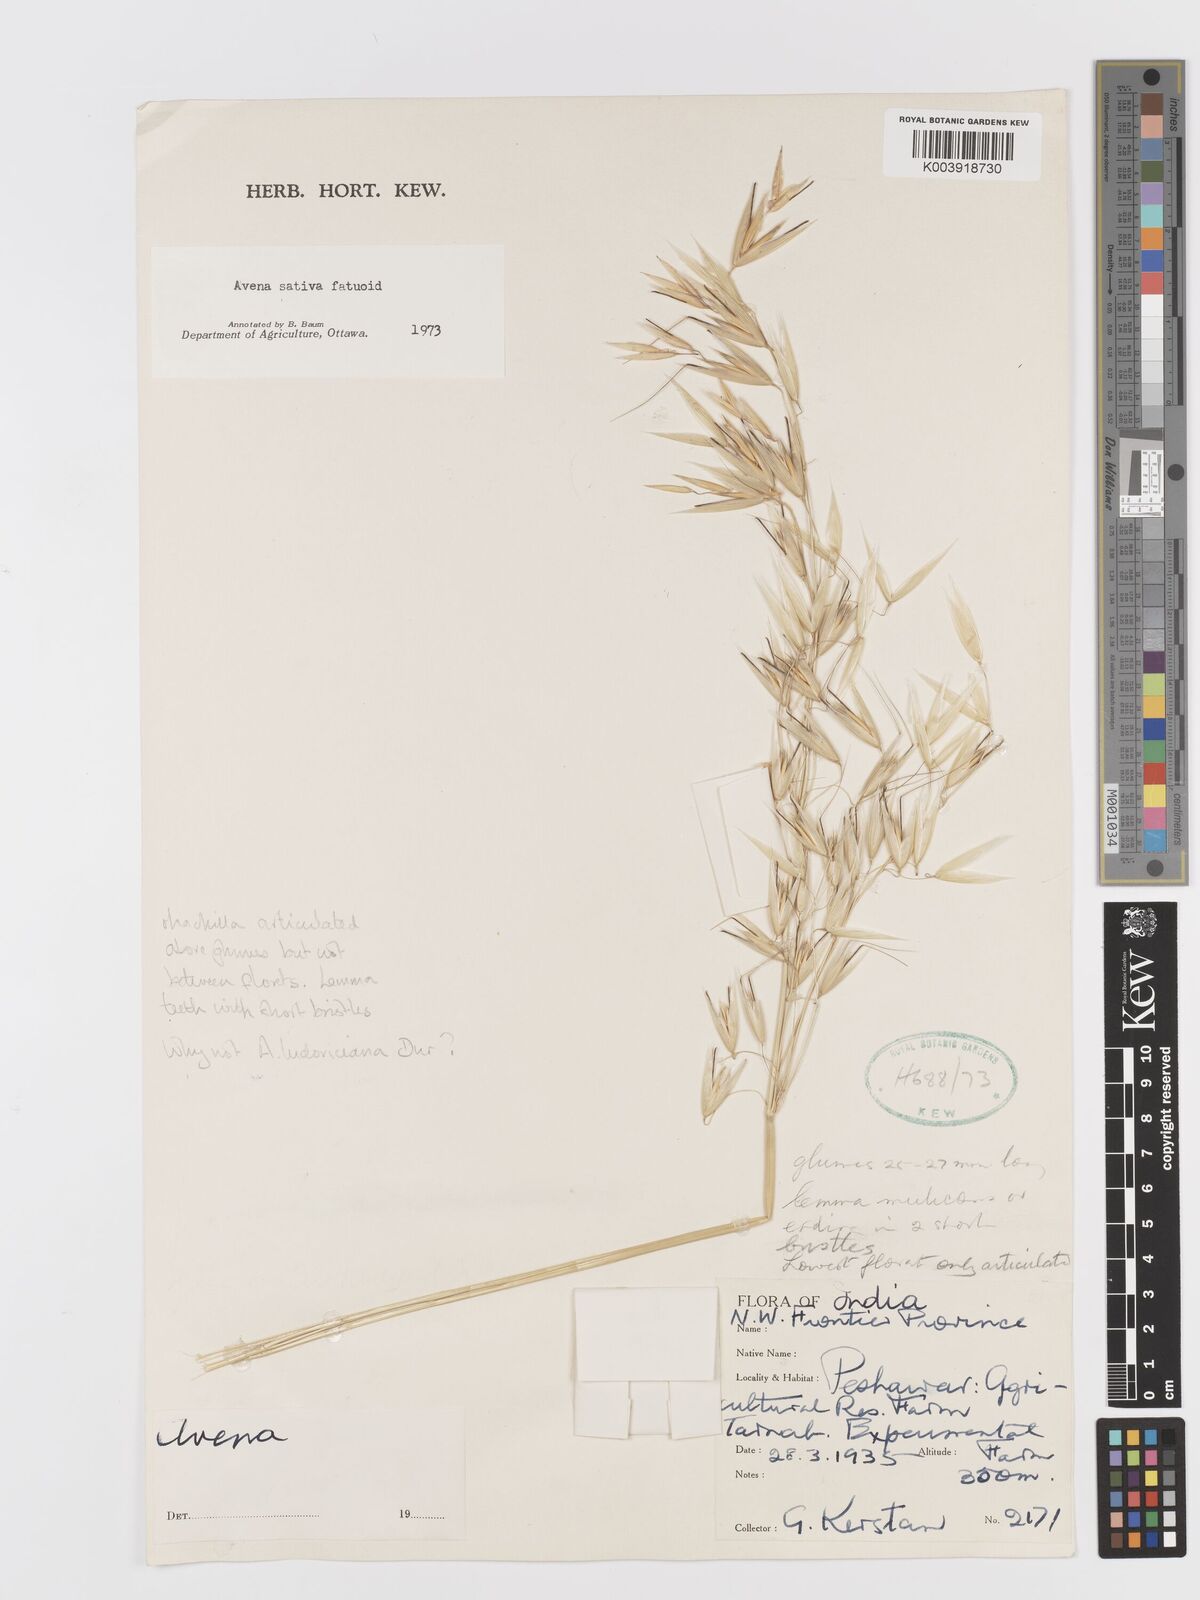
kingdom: Plantae
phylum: Tracheophyta
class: Liliopsida
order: Poales
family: Poaceae
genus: Avena
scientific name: Avena sterilis
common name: Animated oat
